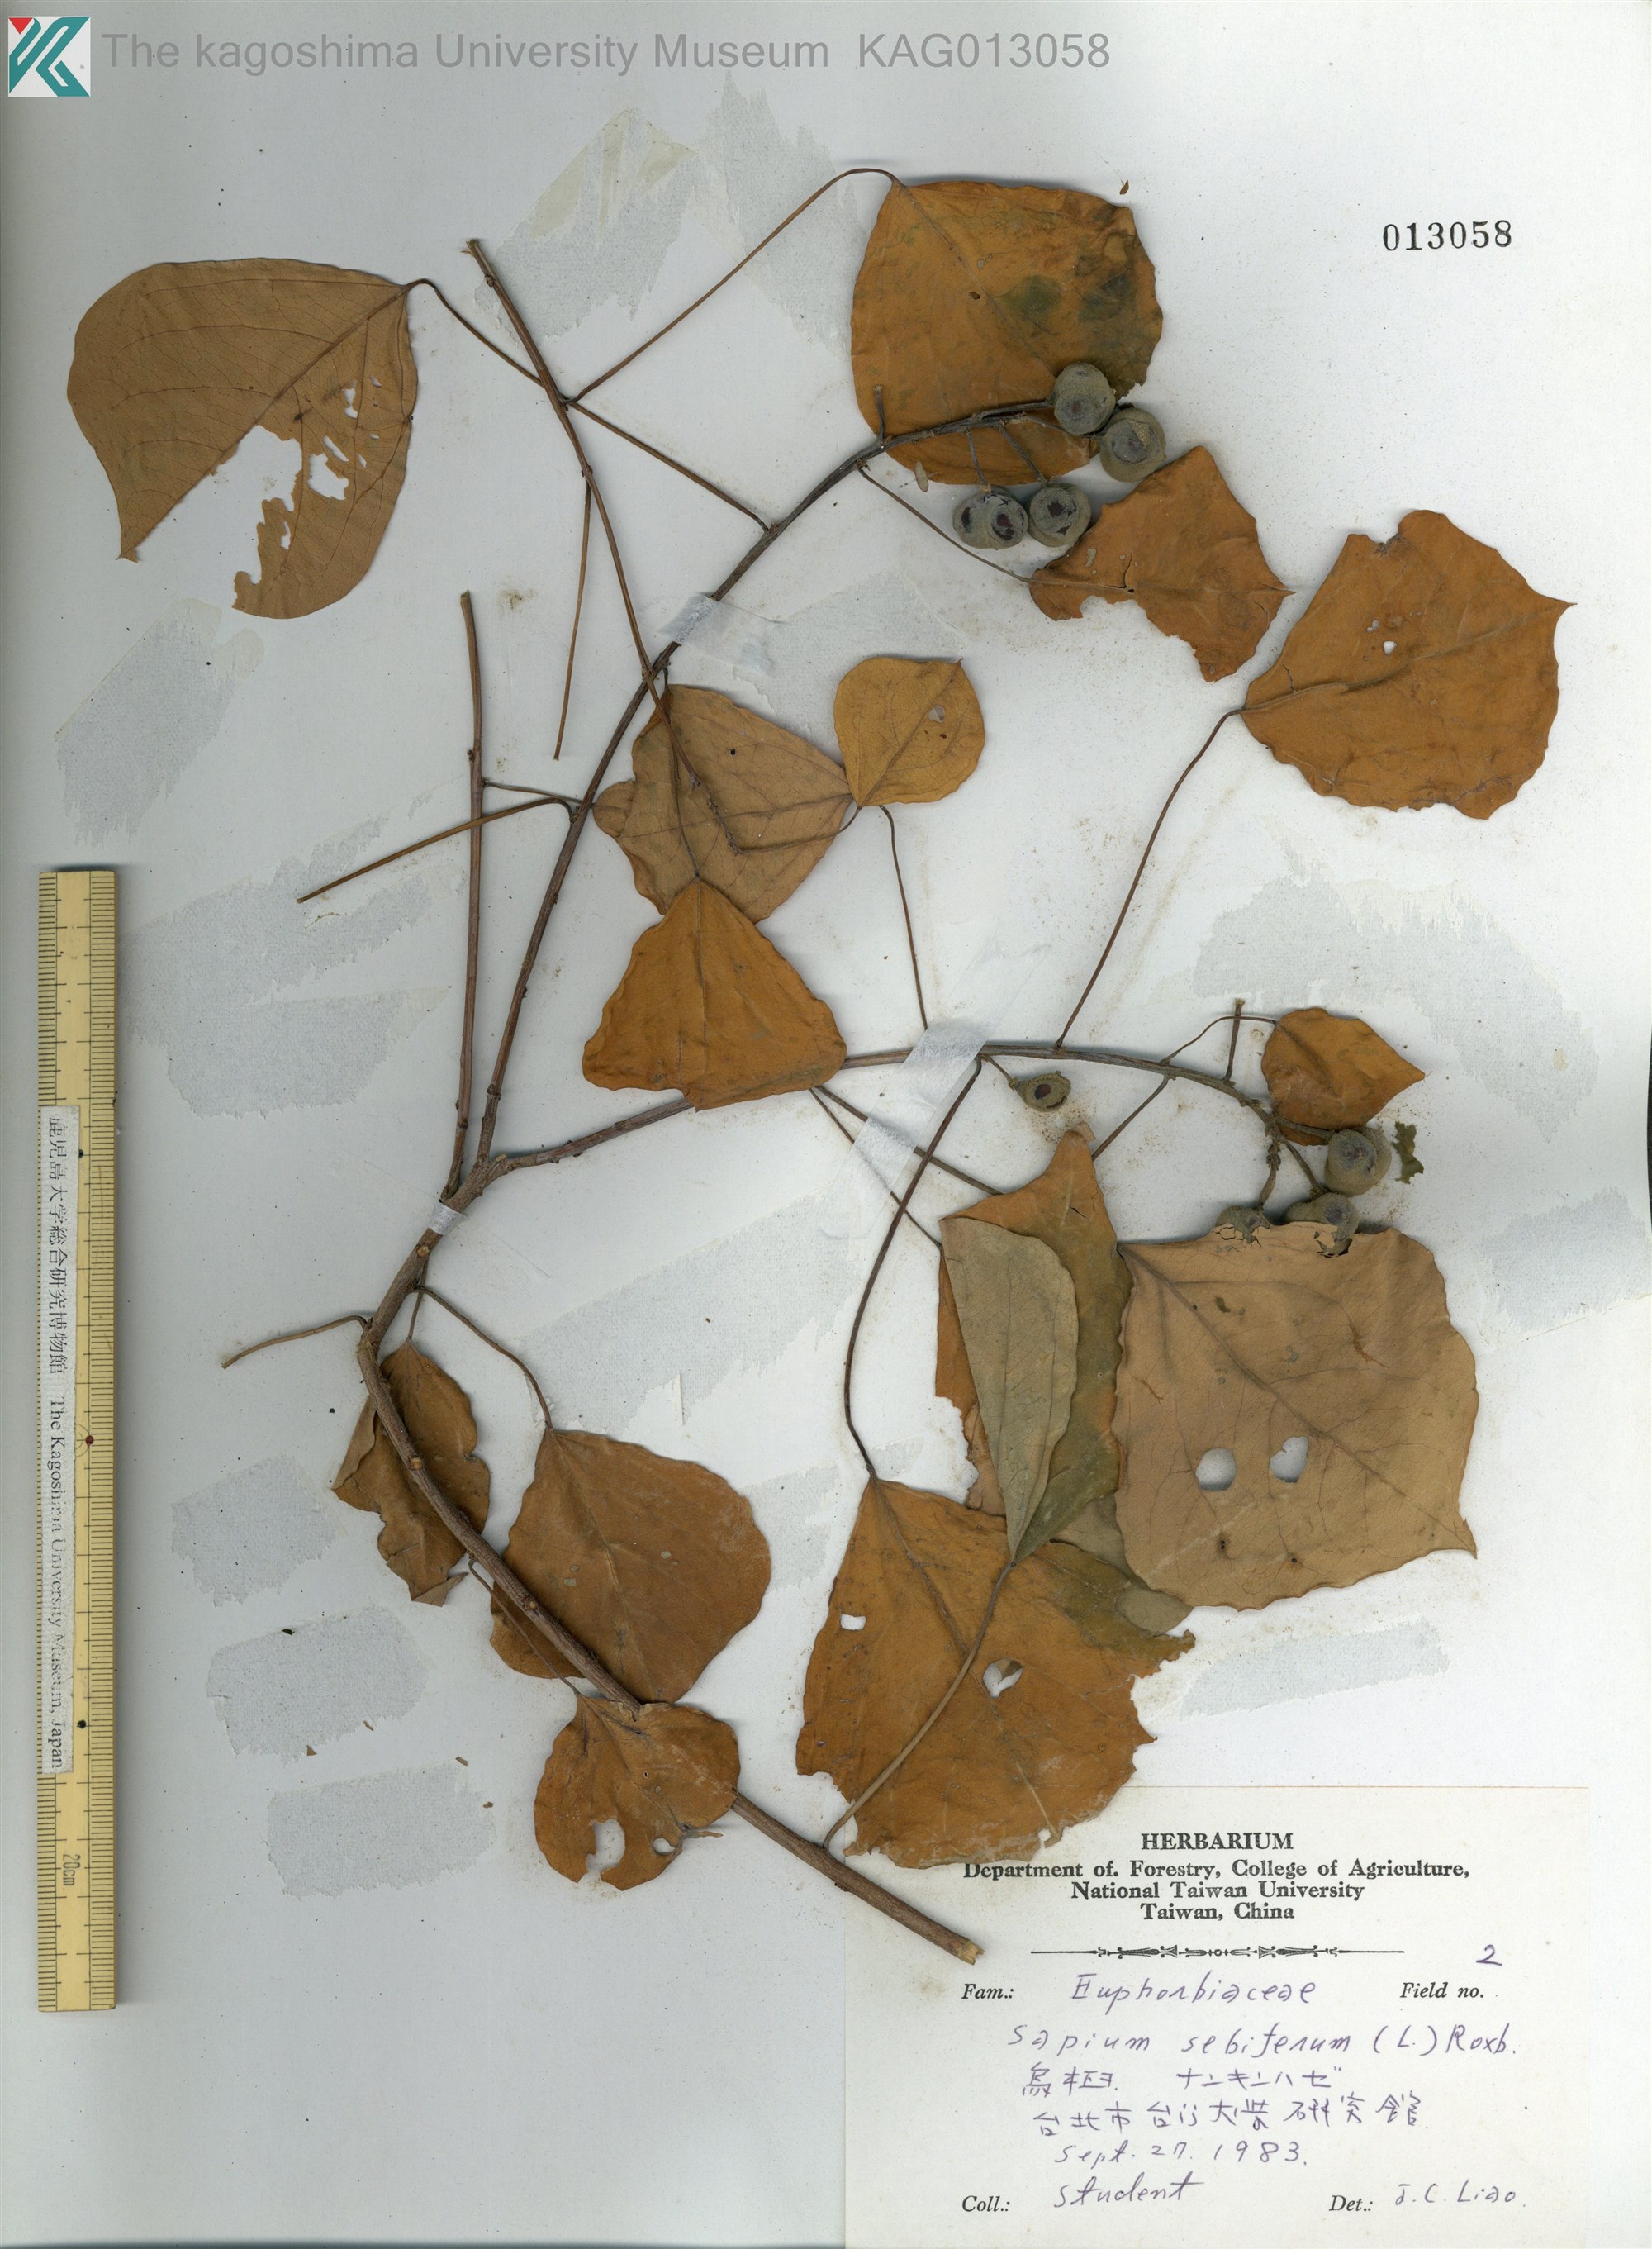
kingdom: Plantae
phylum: Tracheophyta
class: Magnoliopsida
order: Malpighiales
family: Euphorbiaceae
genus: Triadica
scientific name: Triadica sebifera
